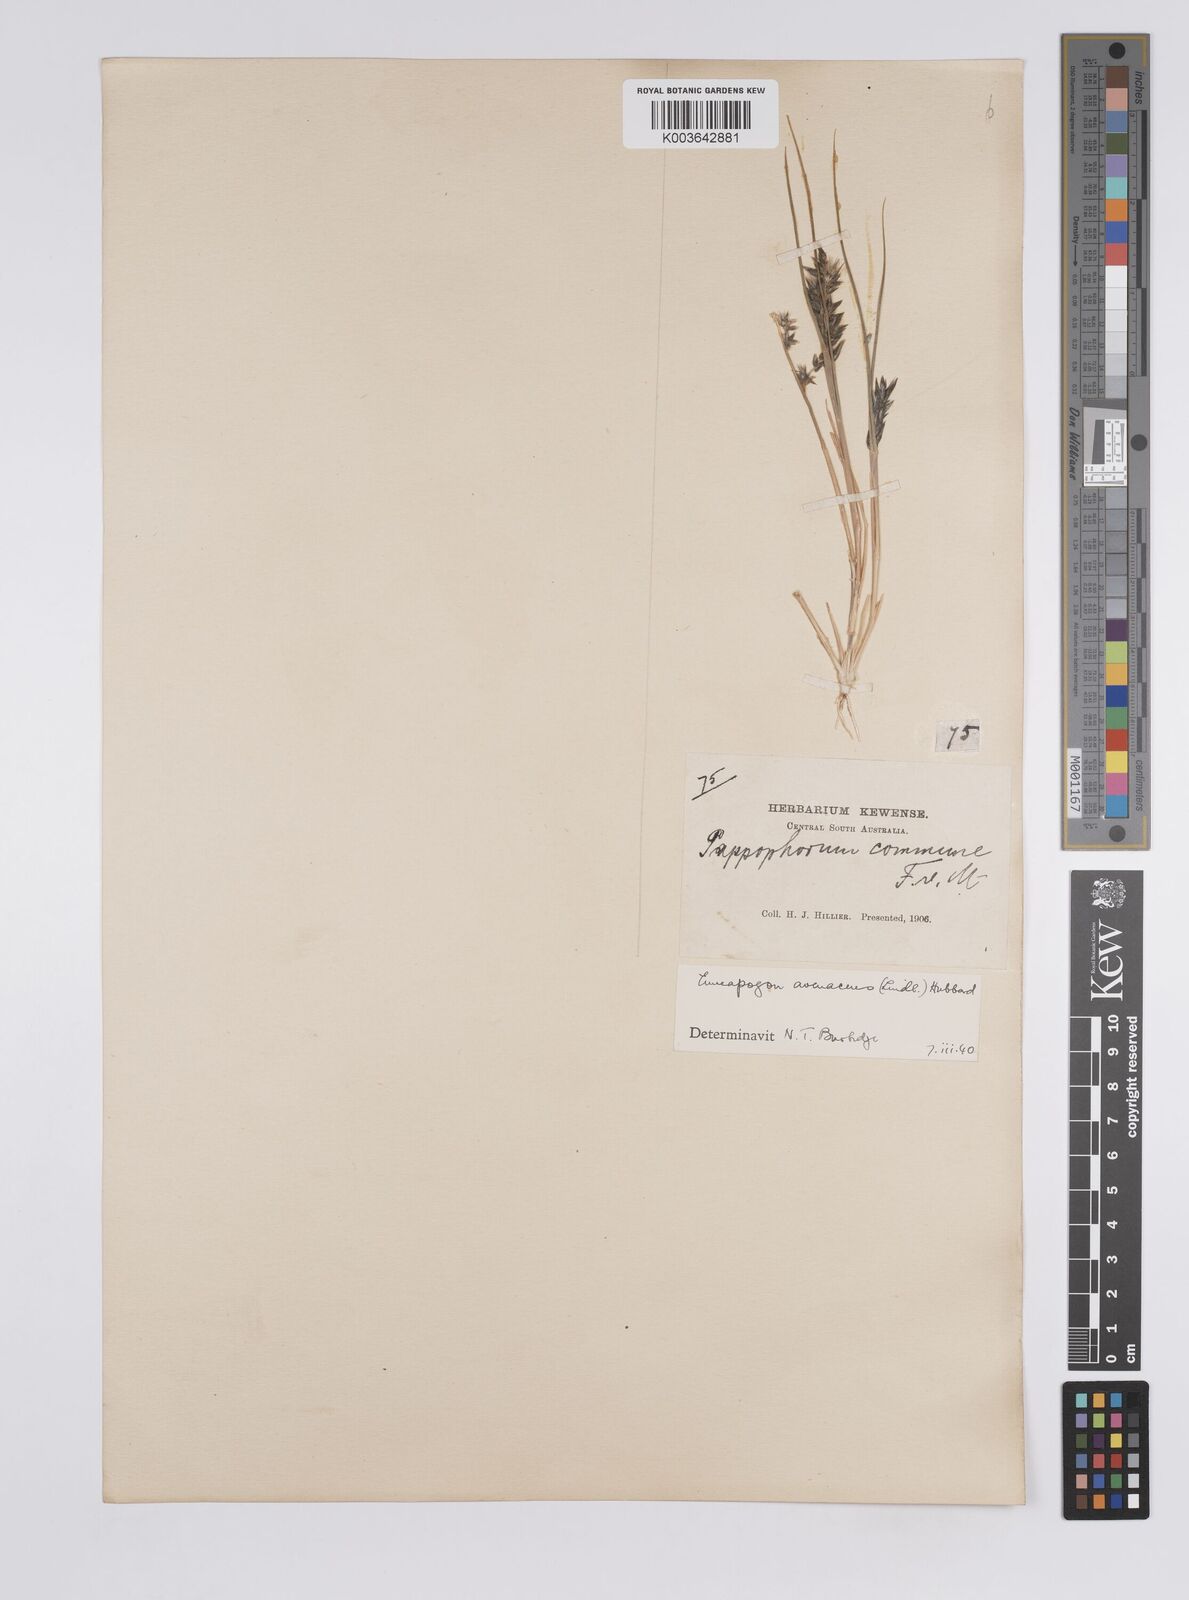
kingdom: Plantae
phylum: Tracheophyta
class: Liliopsida
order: Poales
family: Poaceae
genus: Enneapogon
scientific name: Enneapogon avenaceus
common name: Hairy oat grass
